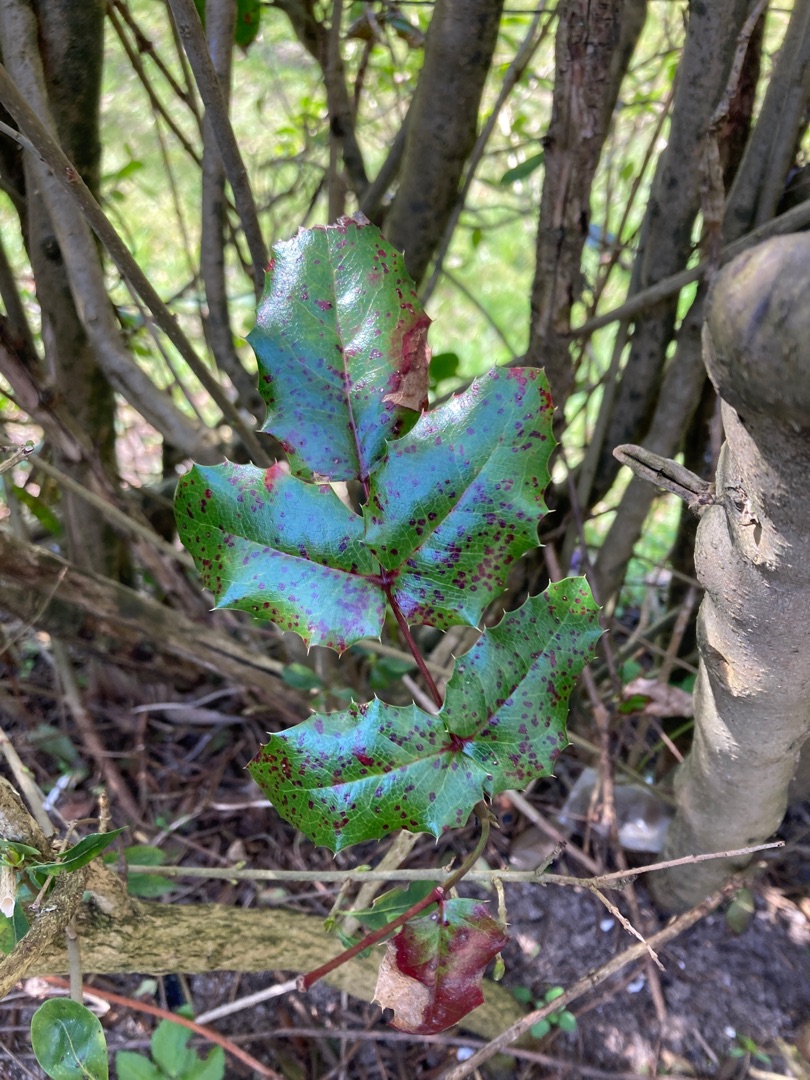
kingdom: Plantae
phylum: Tracheophyta
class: Magnoliopsida
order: Ranunculales
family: Berberidaceae
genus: Mahonia
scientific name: Mahonia aquifolium
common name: Almindelig mahonie
